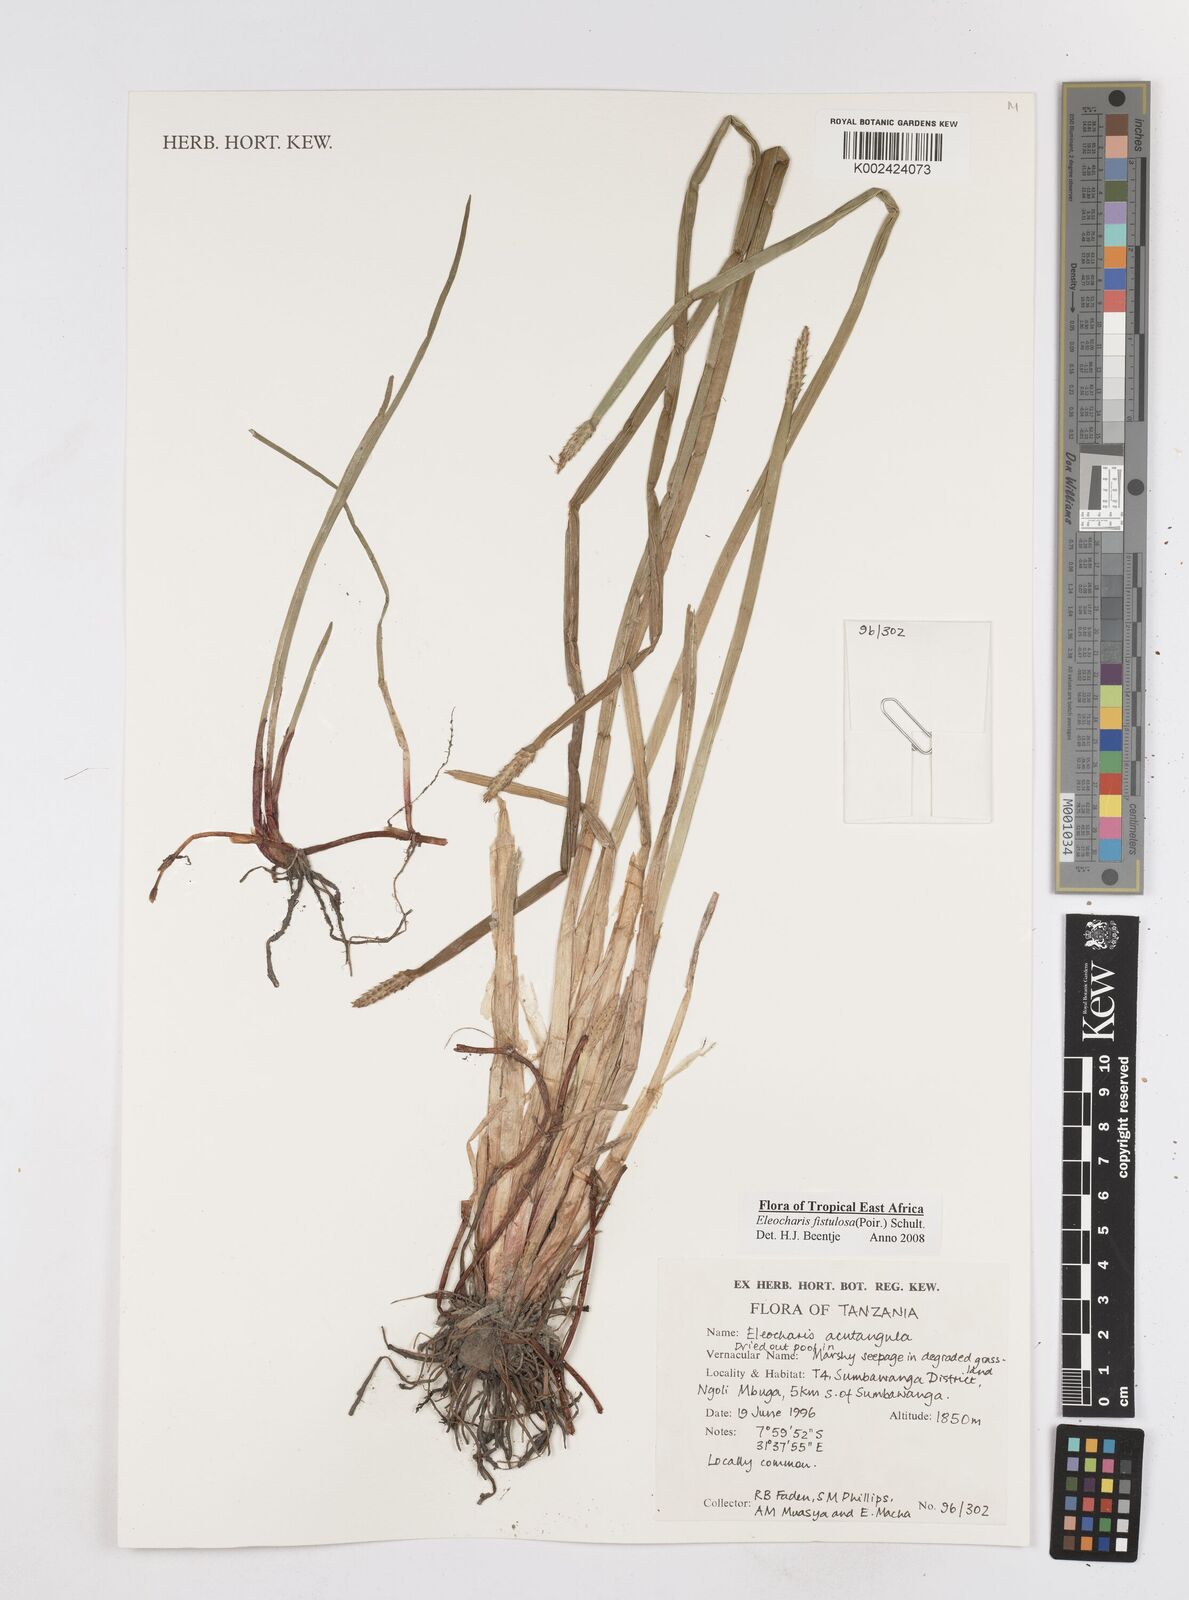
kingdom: Plantae
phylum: Tracheophyta
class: Liliopsida
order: Poales
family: Cyperaceae
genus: Eleocharis
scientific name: Eleocharis acutangula
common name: Acute spikerush
